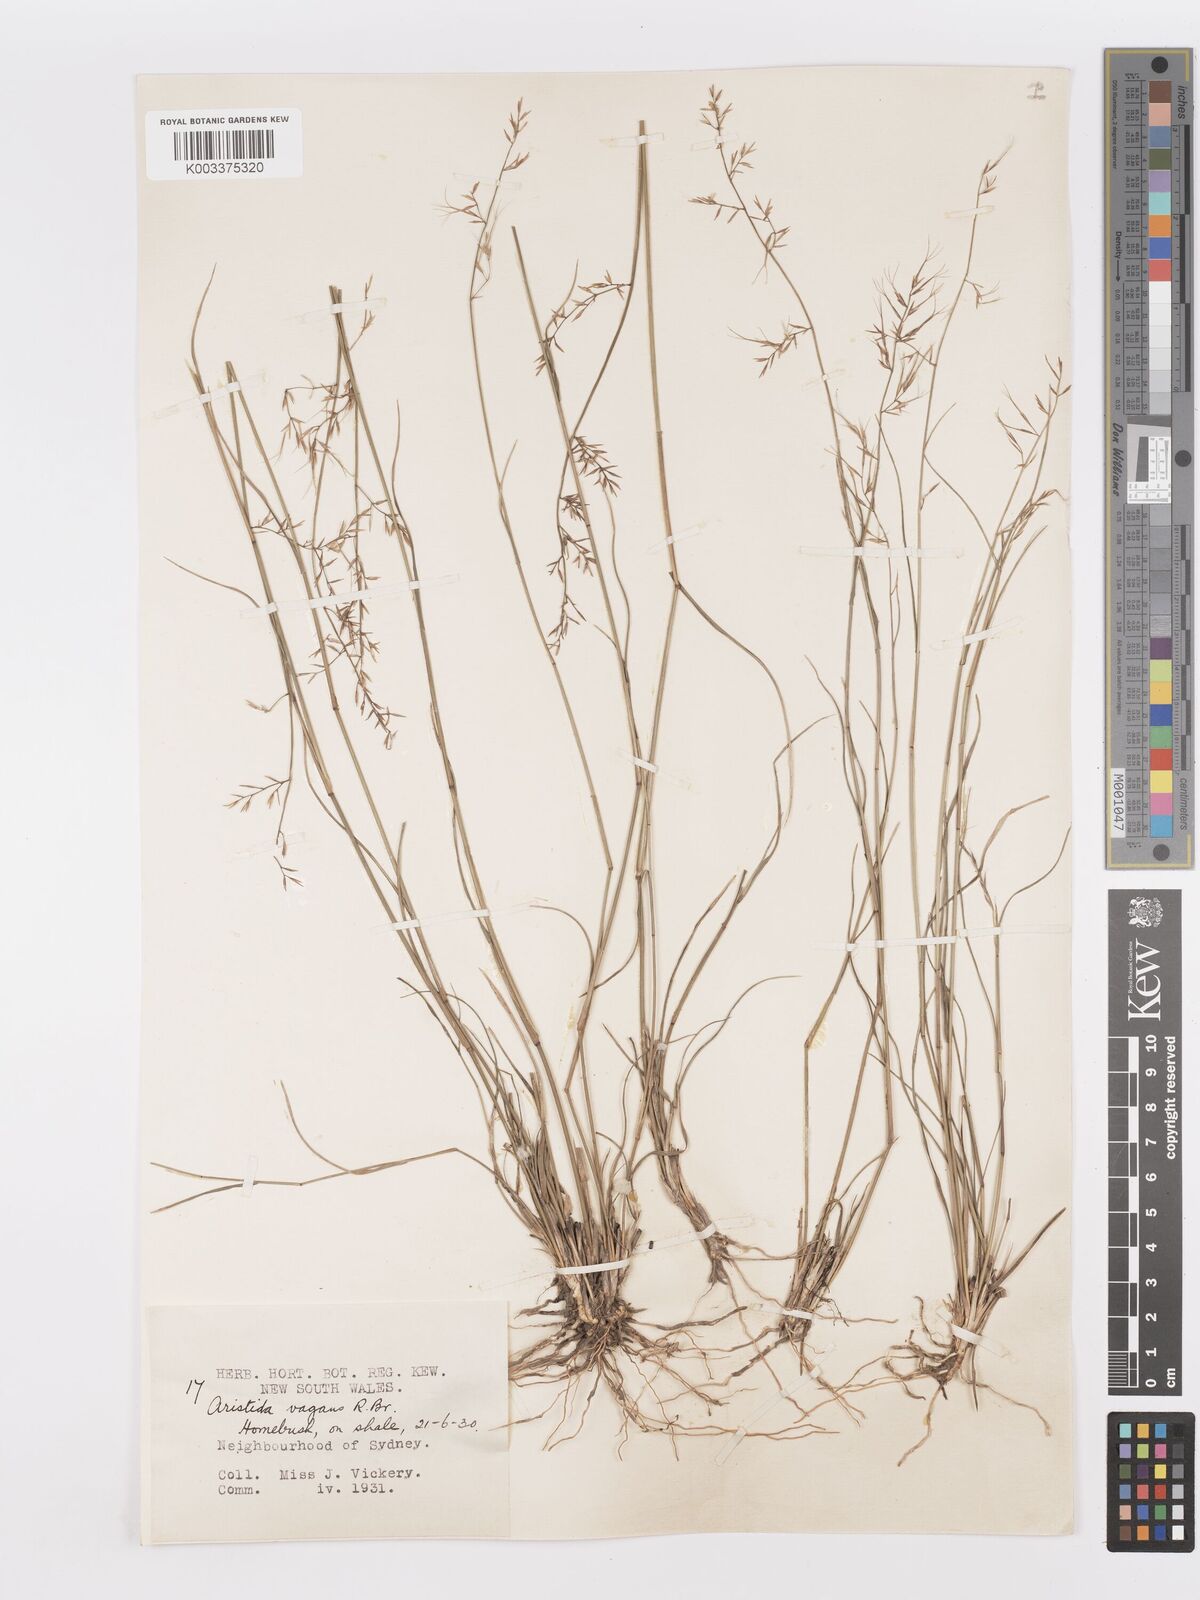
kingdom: Plantae
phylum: Tracheophyta
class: Liliopsida
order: Poales
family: Poaceae
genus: Aristida
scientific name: Aristida vagans
